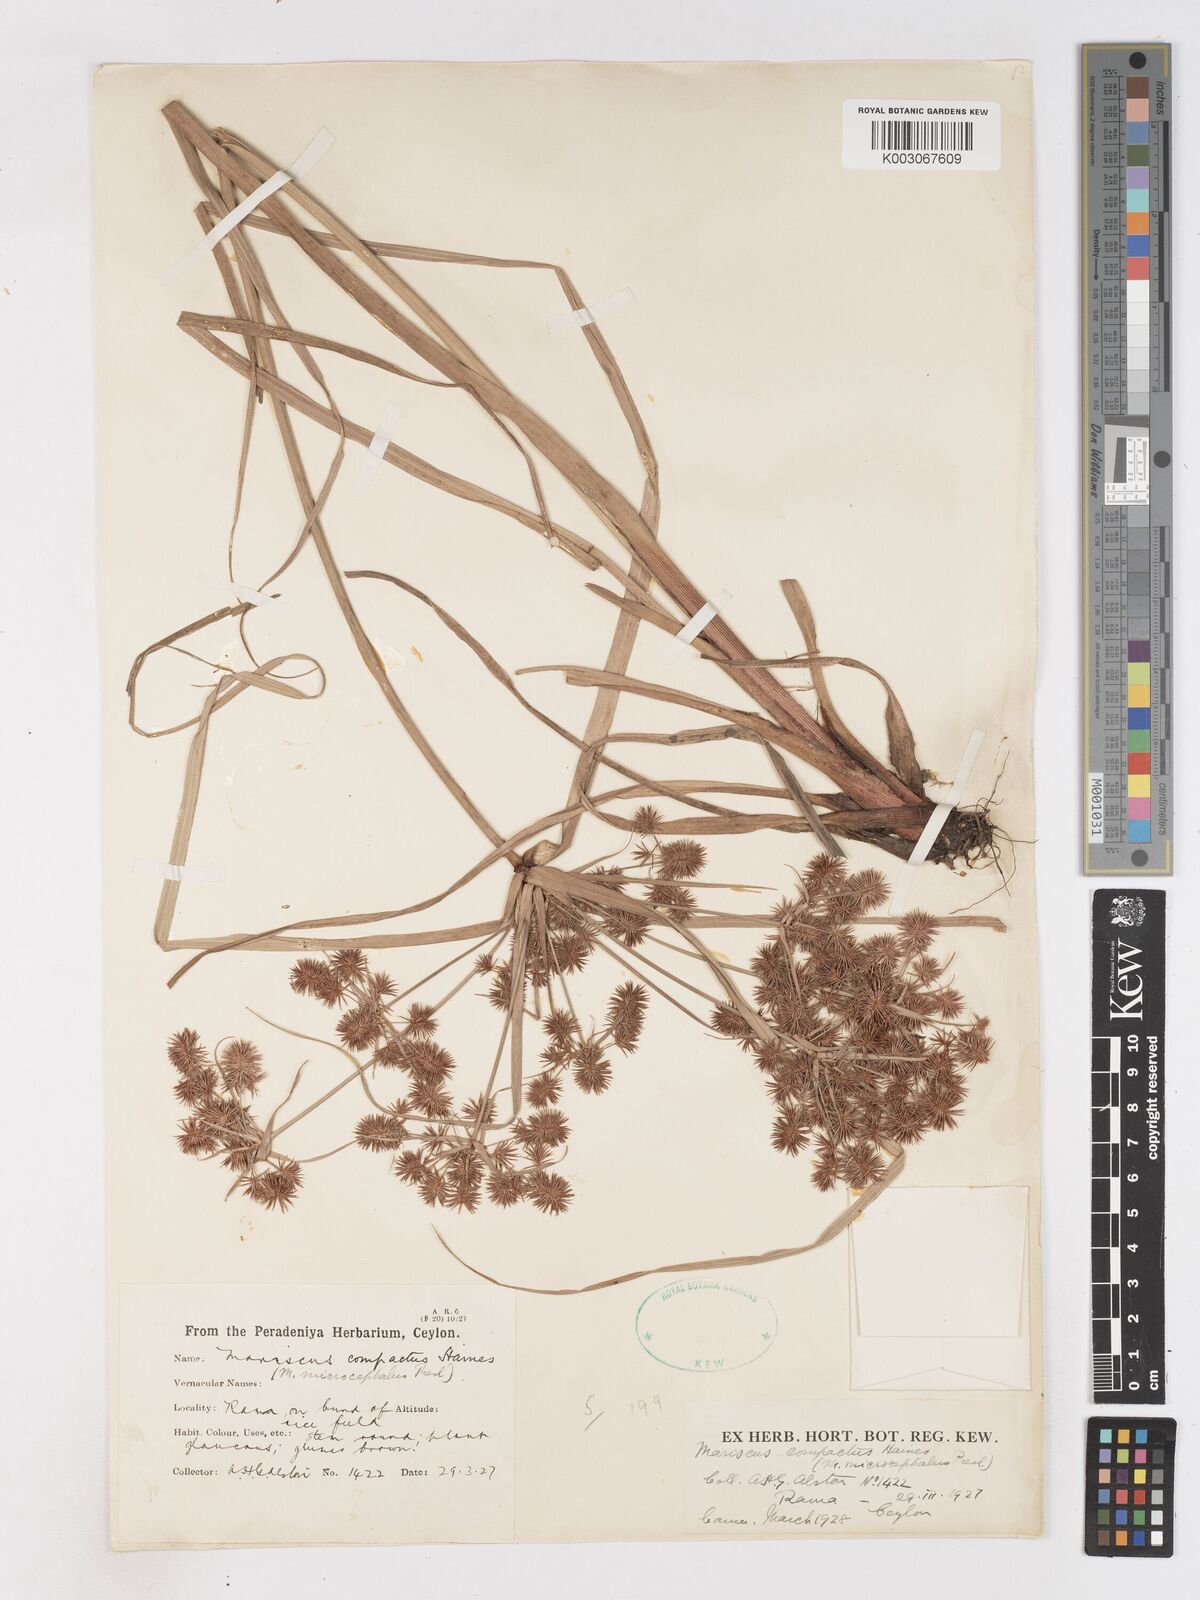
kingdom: Plantae
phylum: Tracheophyta
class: Liliopsida
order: Poales
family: Cyperaceae
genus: Cyperus
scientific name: Cyperus compactus
